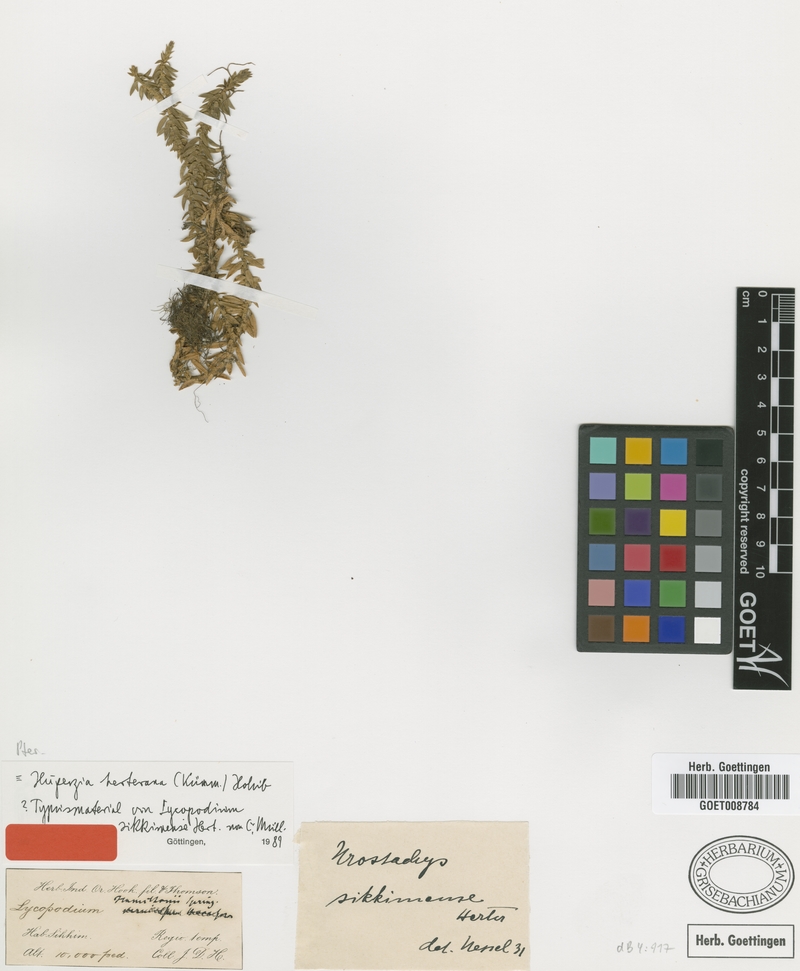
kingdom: Plantae
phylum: Tracheophyta
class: Lycopodiopsida
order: Lycopodiales
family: Lycopodiaceae
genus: Huperzia
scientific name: Huperzia herteriana
